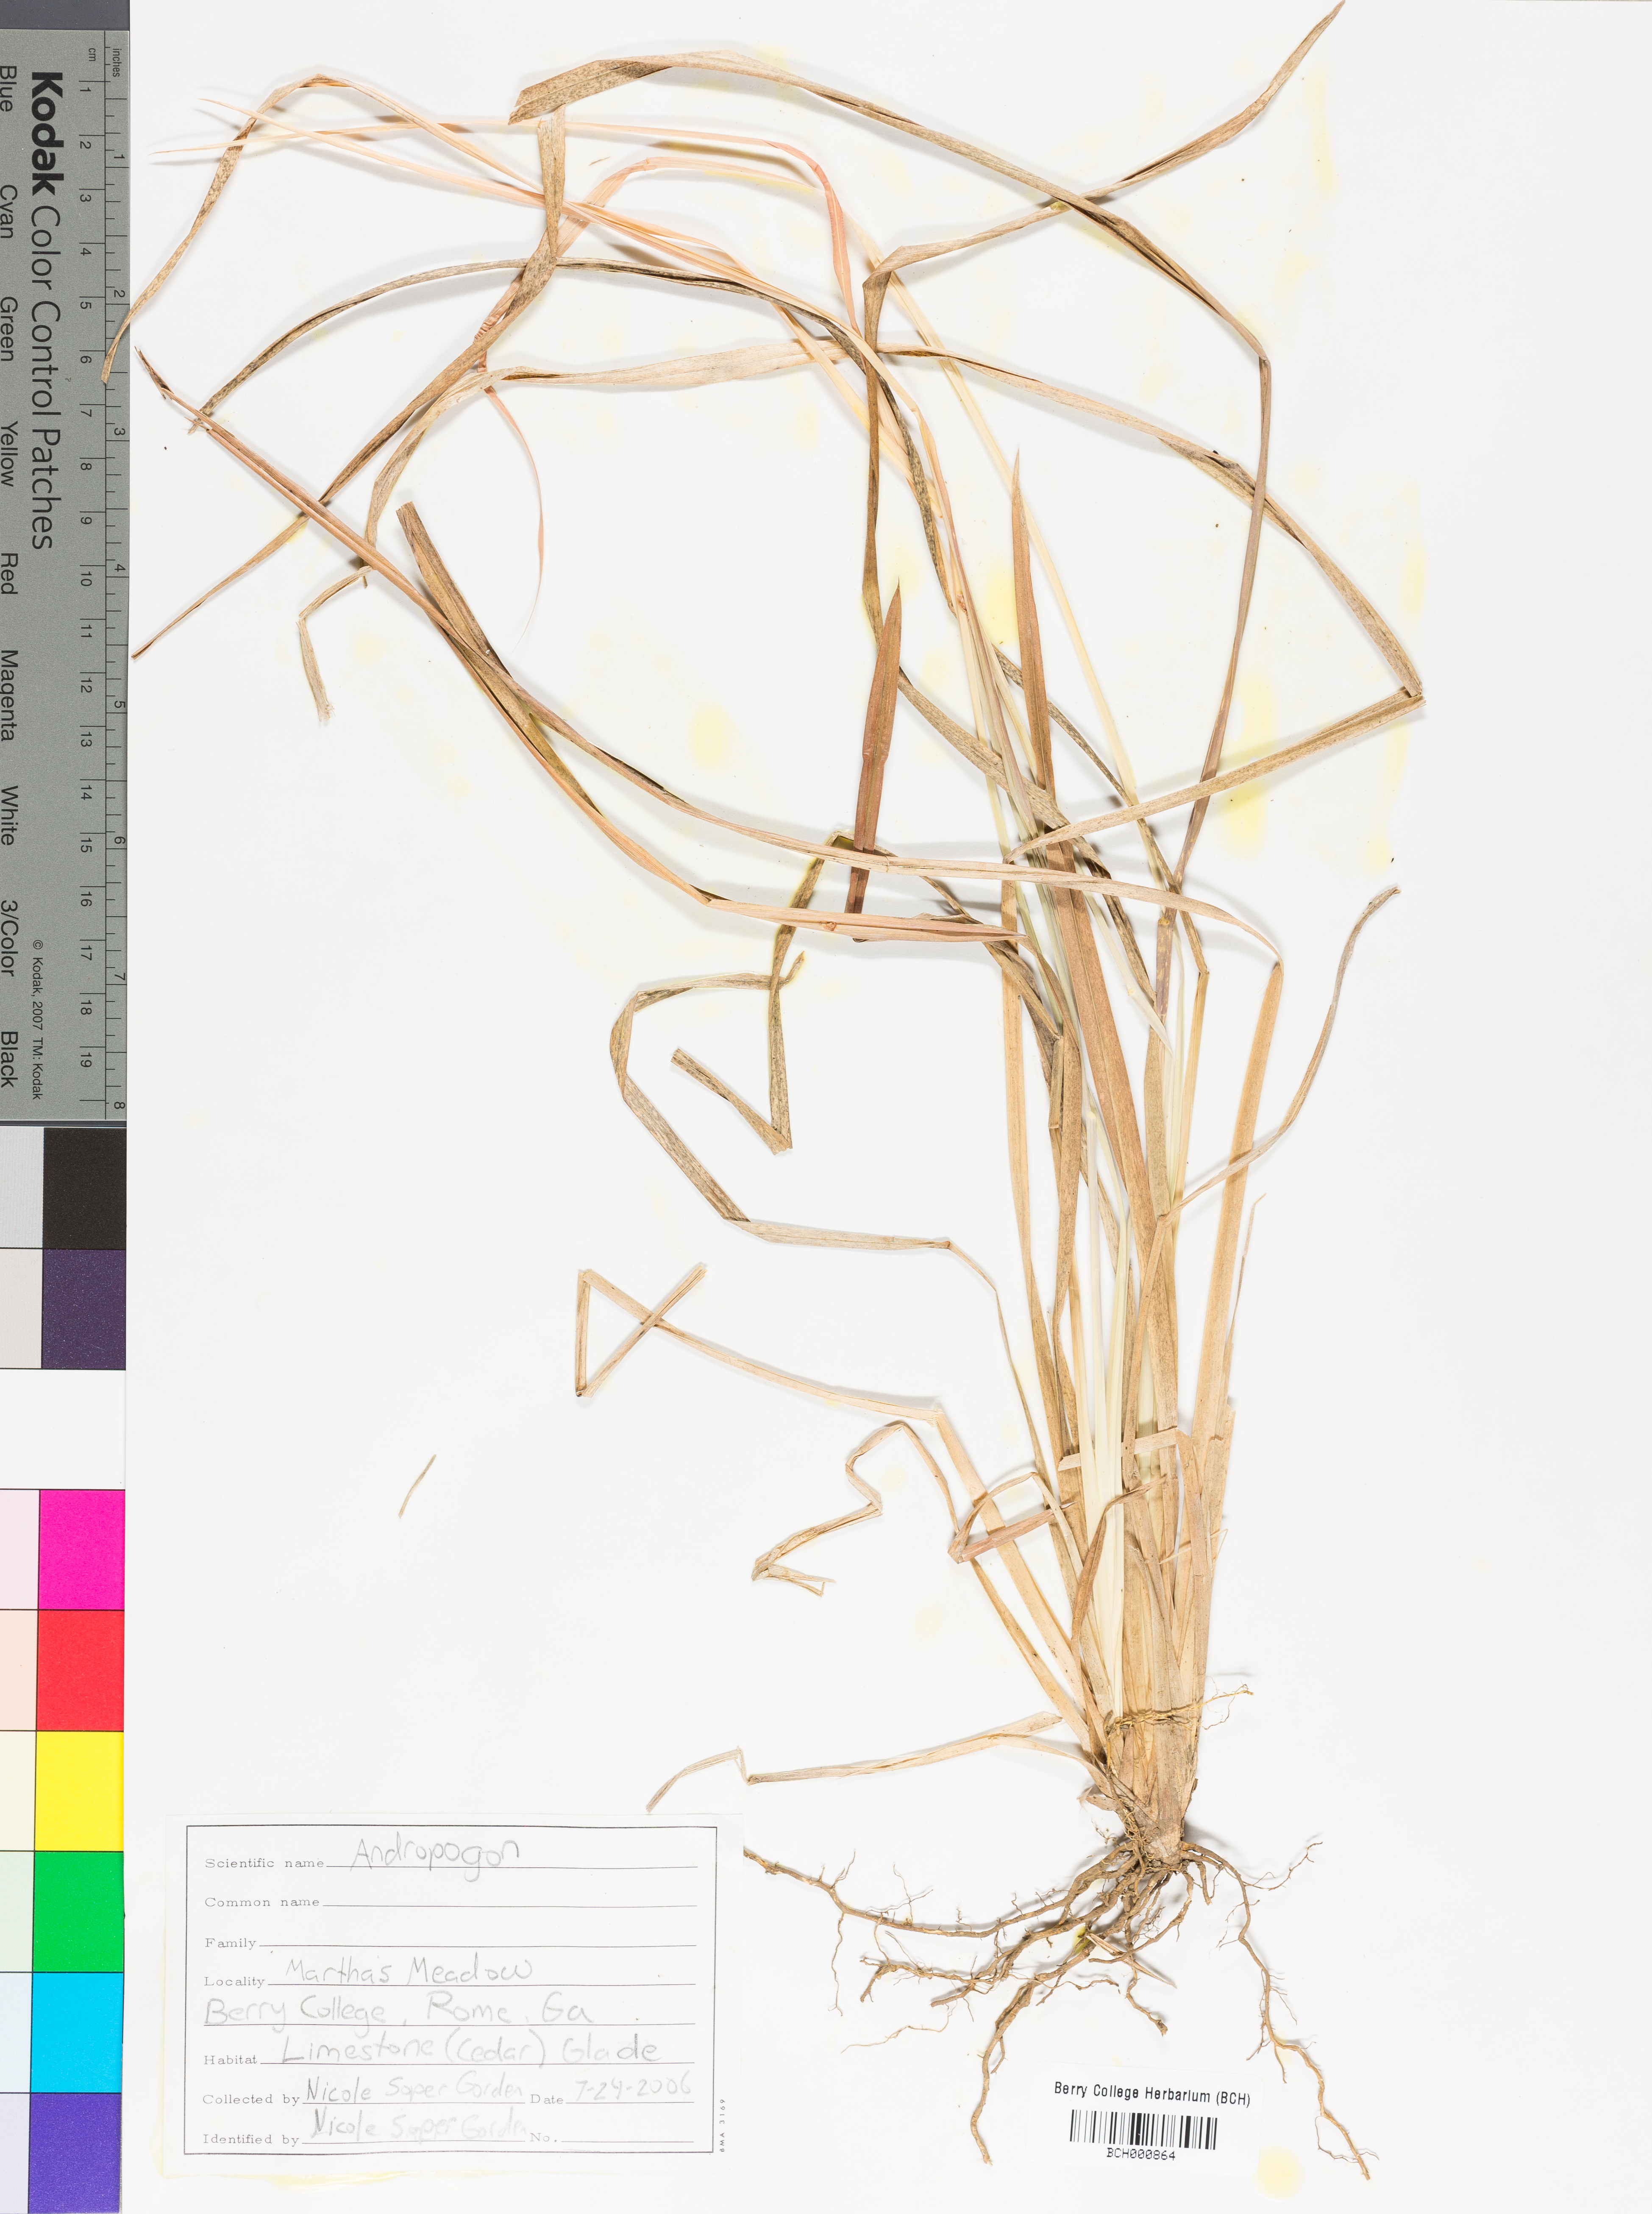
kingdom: Plantae
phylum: Tracheophyta
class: Liliopsida
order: Poales
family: Poaceae
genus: Andropogon
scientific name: Andropogon
